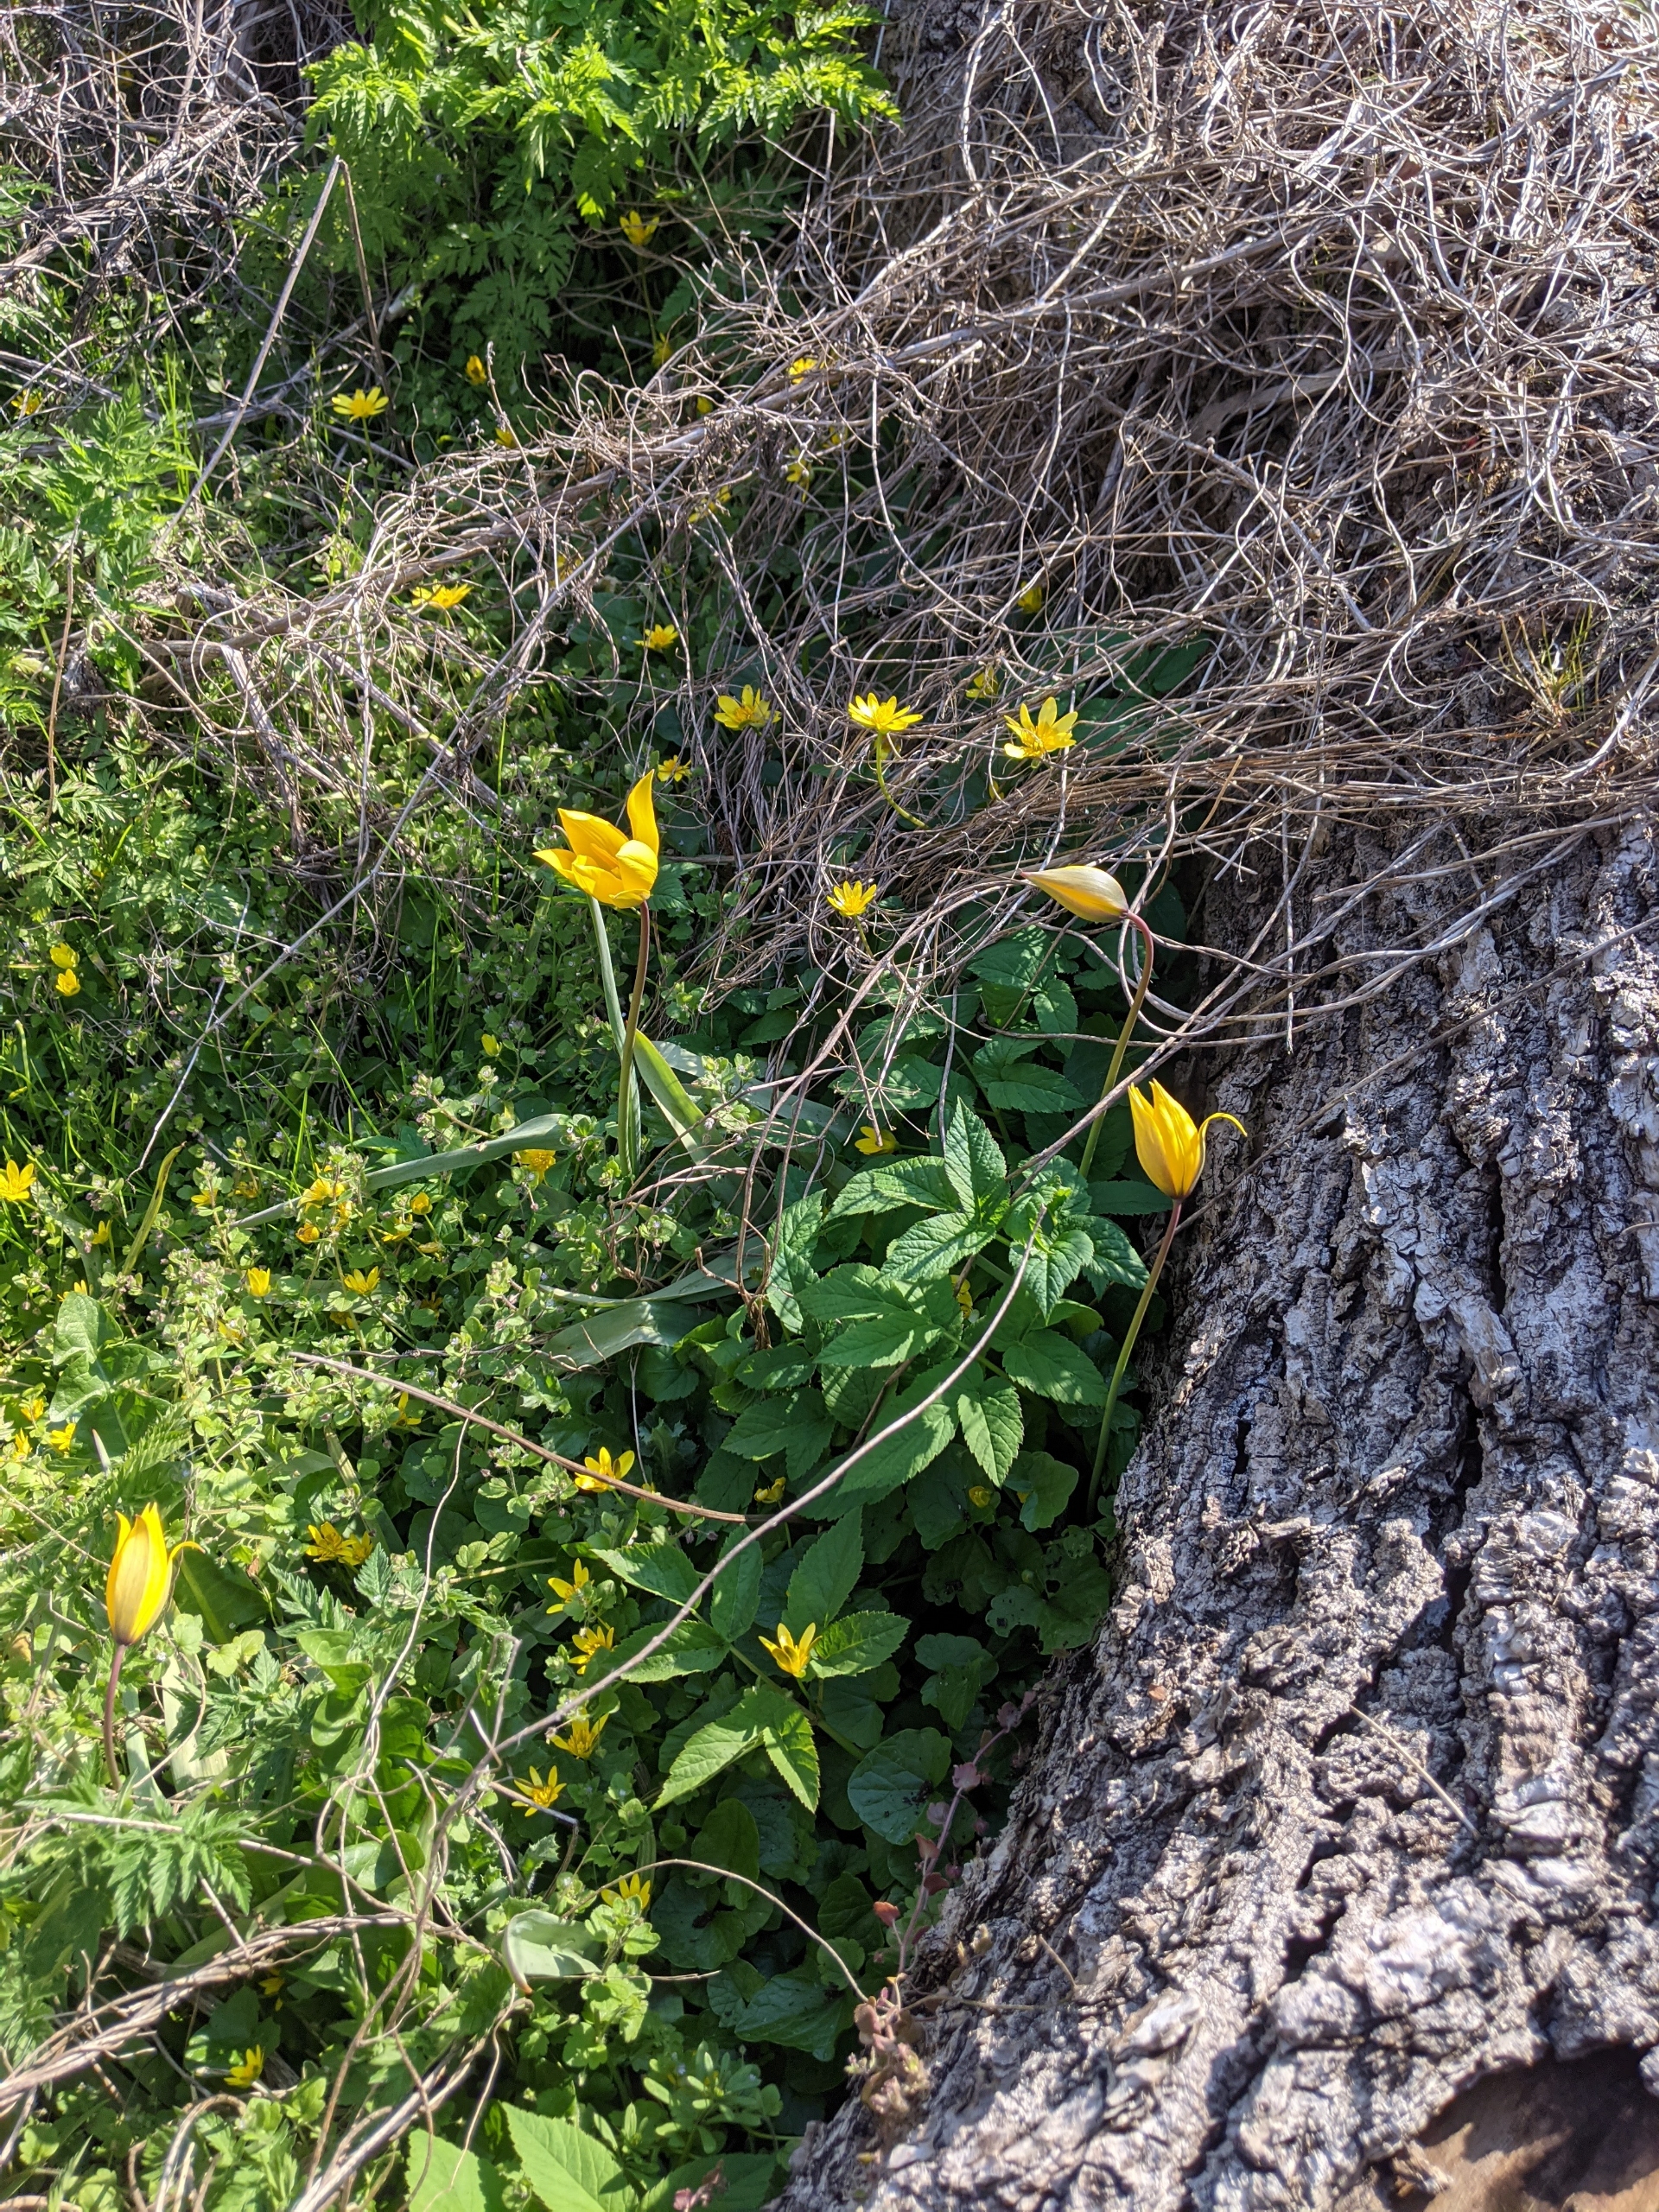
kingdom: Plantae
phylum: Tracheophyta
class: Liliopsida
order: Liliales
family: Liliaceae
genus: Tulipa
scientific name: Tulipa sylvestris
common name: Vild tulipan
